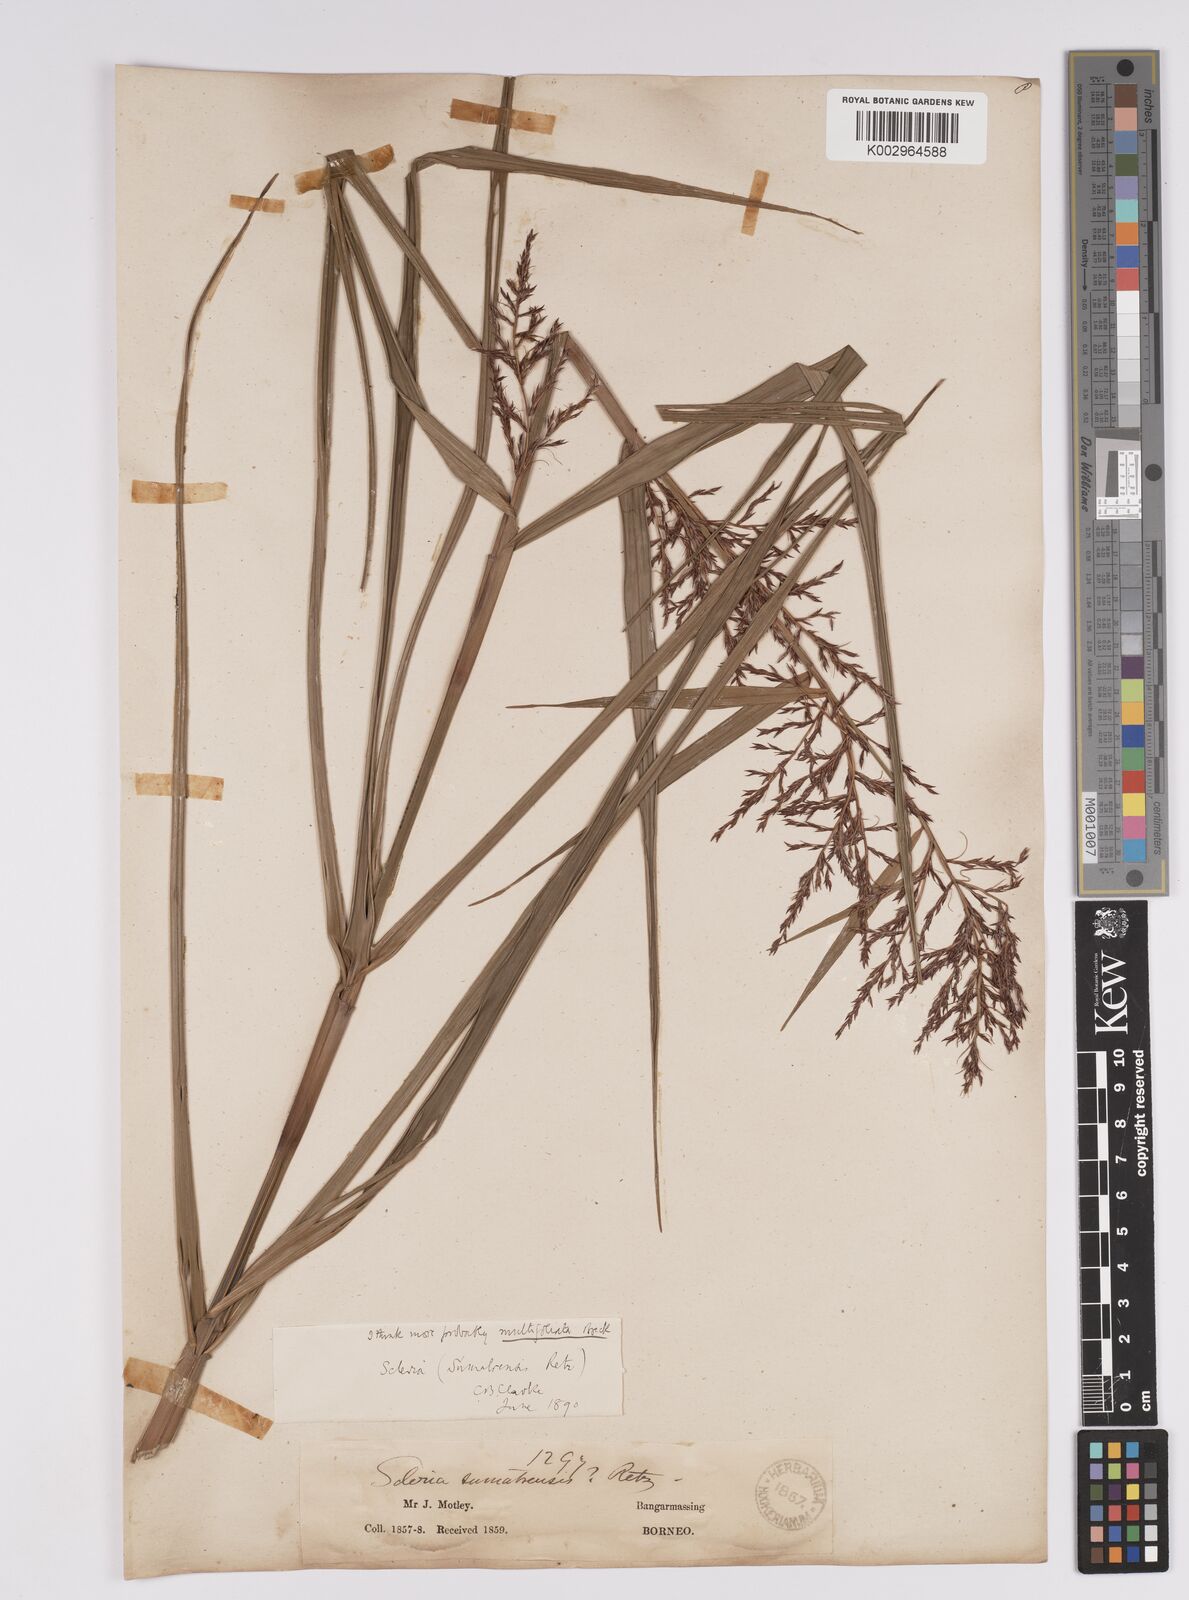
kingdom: Plantae
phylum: Tracheophyta
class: Liliopsida
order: Poales
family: Cyperaceae
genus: Scleria
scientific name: Scleria purpurascens
